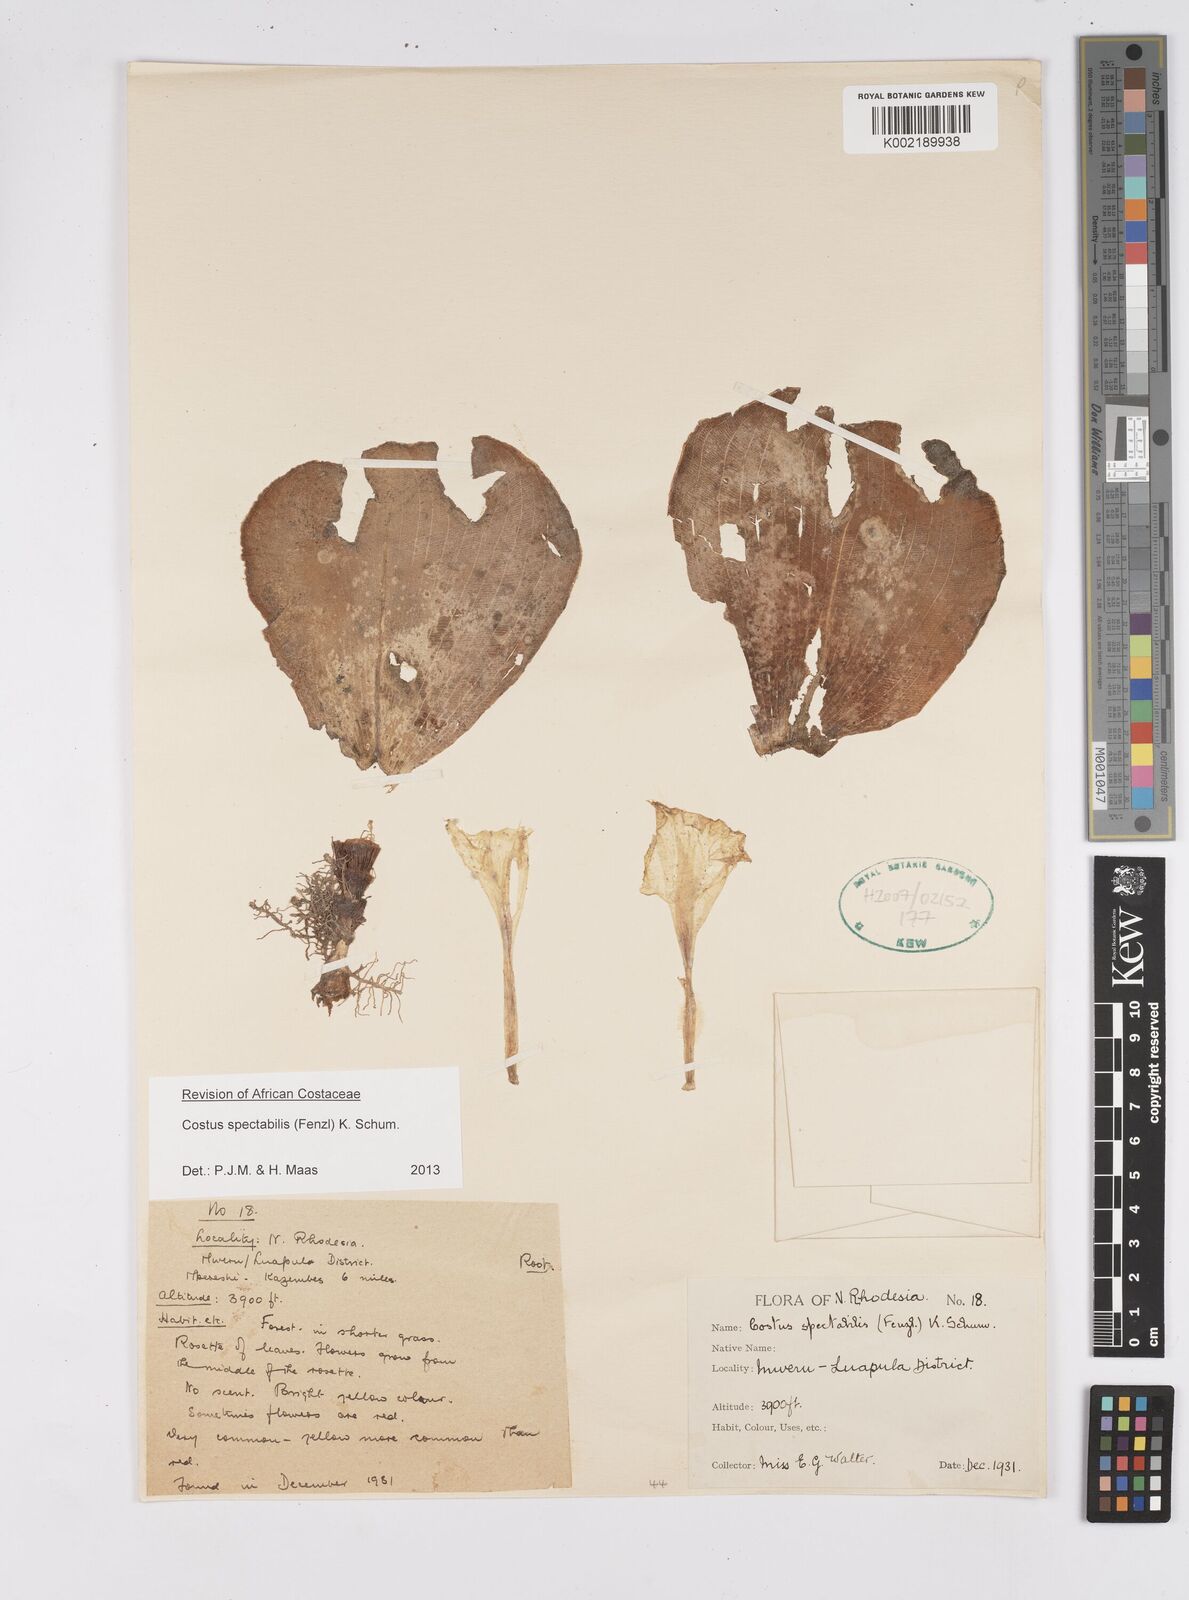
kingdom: Plantae
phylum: Tracheophyta
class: Liliopsida
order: Zingiberales
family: Costaceae
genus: Costus
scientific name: Costus spectabilis
